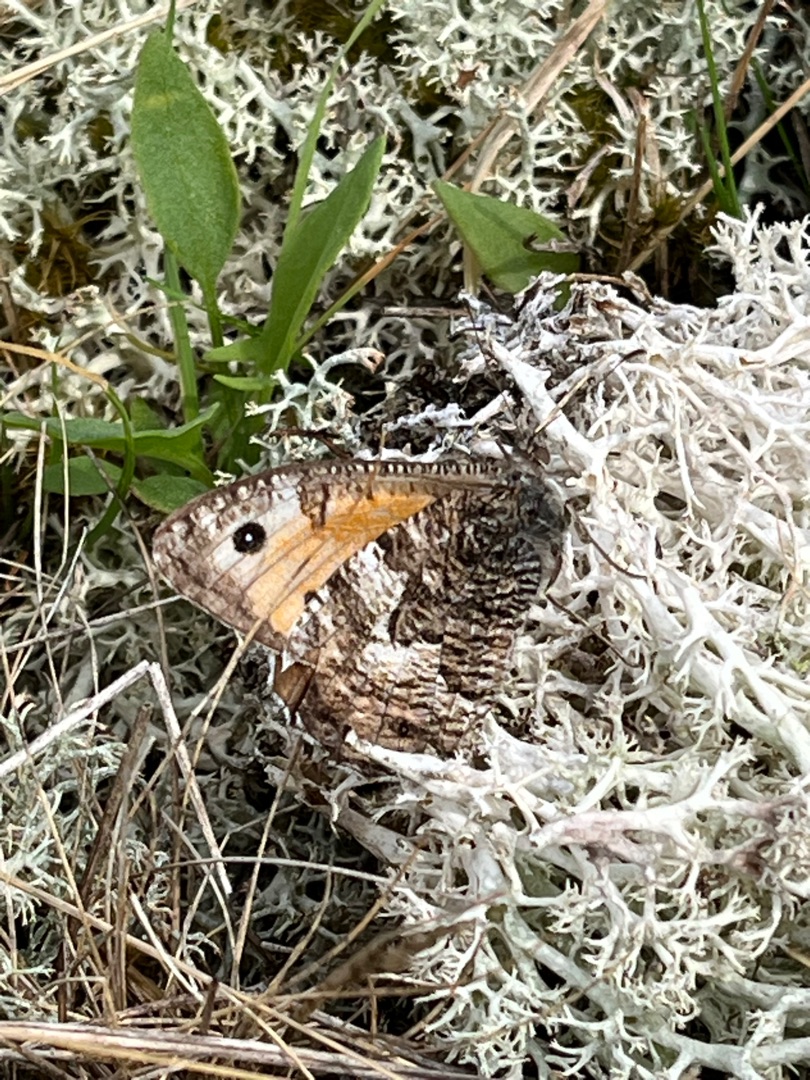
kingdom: Animalia
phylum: Arthropoda
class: Insecta
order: Lepidoptera
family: Nymphalidae
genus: Hipparchia
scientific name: Hipparchia semele
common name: Sandrandøje
